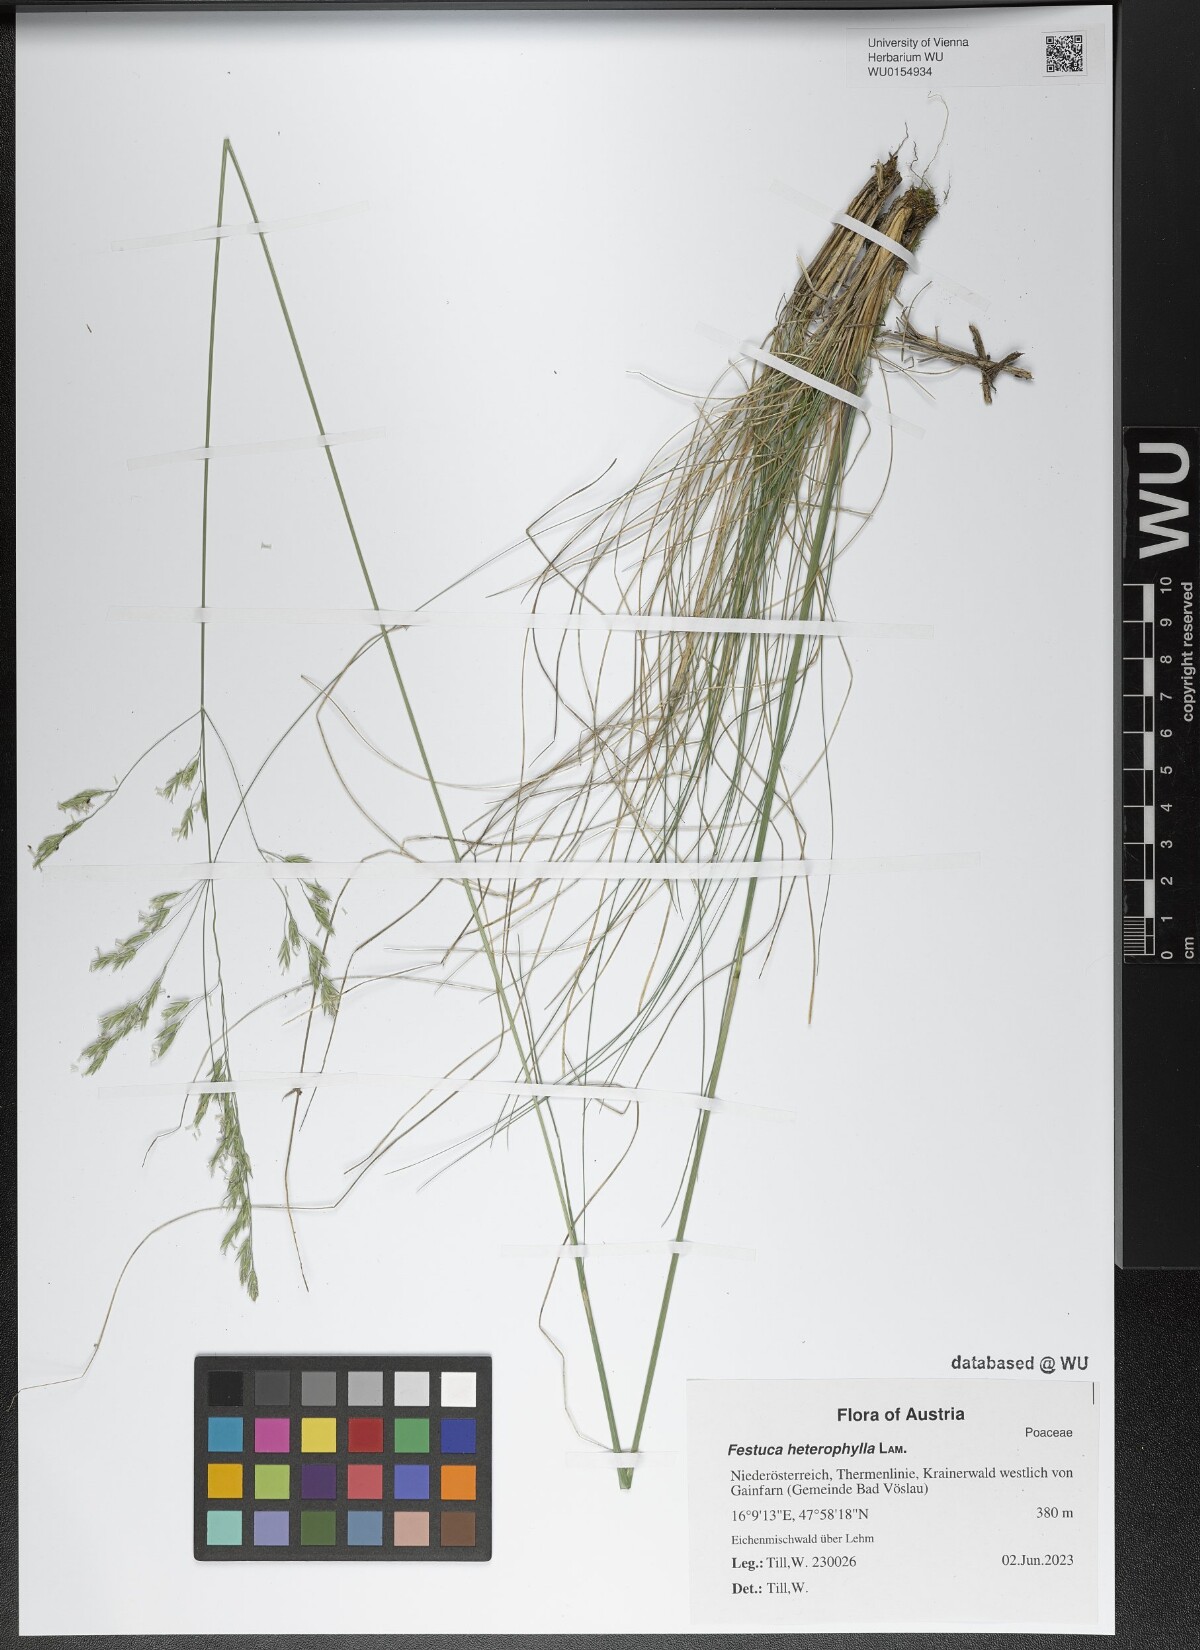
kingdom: Plantae
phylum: Tracheophyta
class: Liliopsida
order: Poales
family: Poaceae
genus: Festuca
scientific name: Festuca heterophylla
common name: Various-leaved fescue
